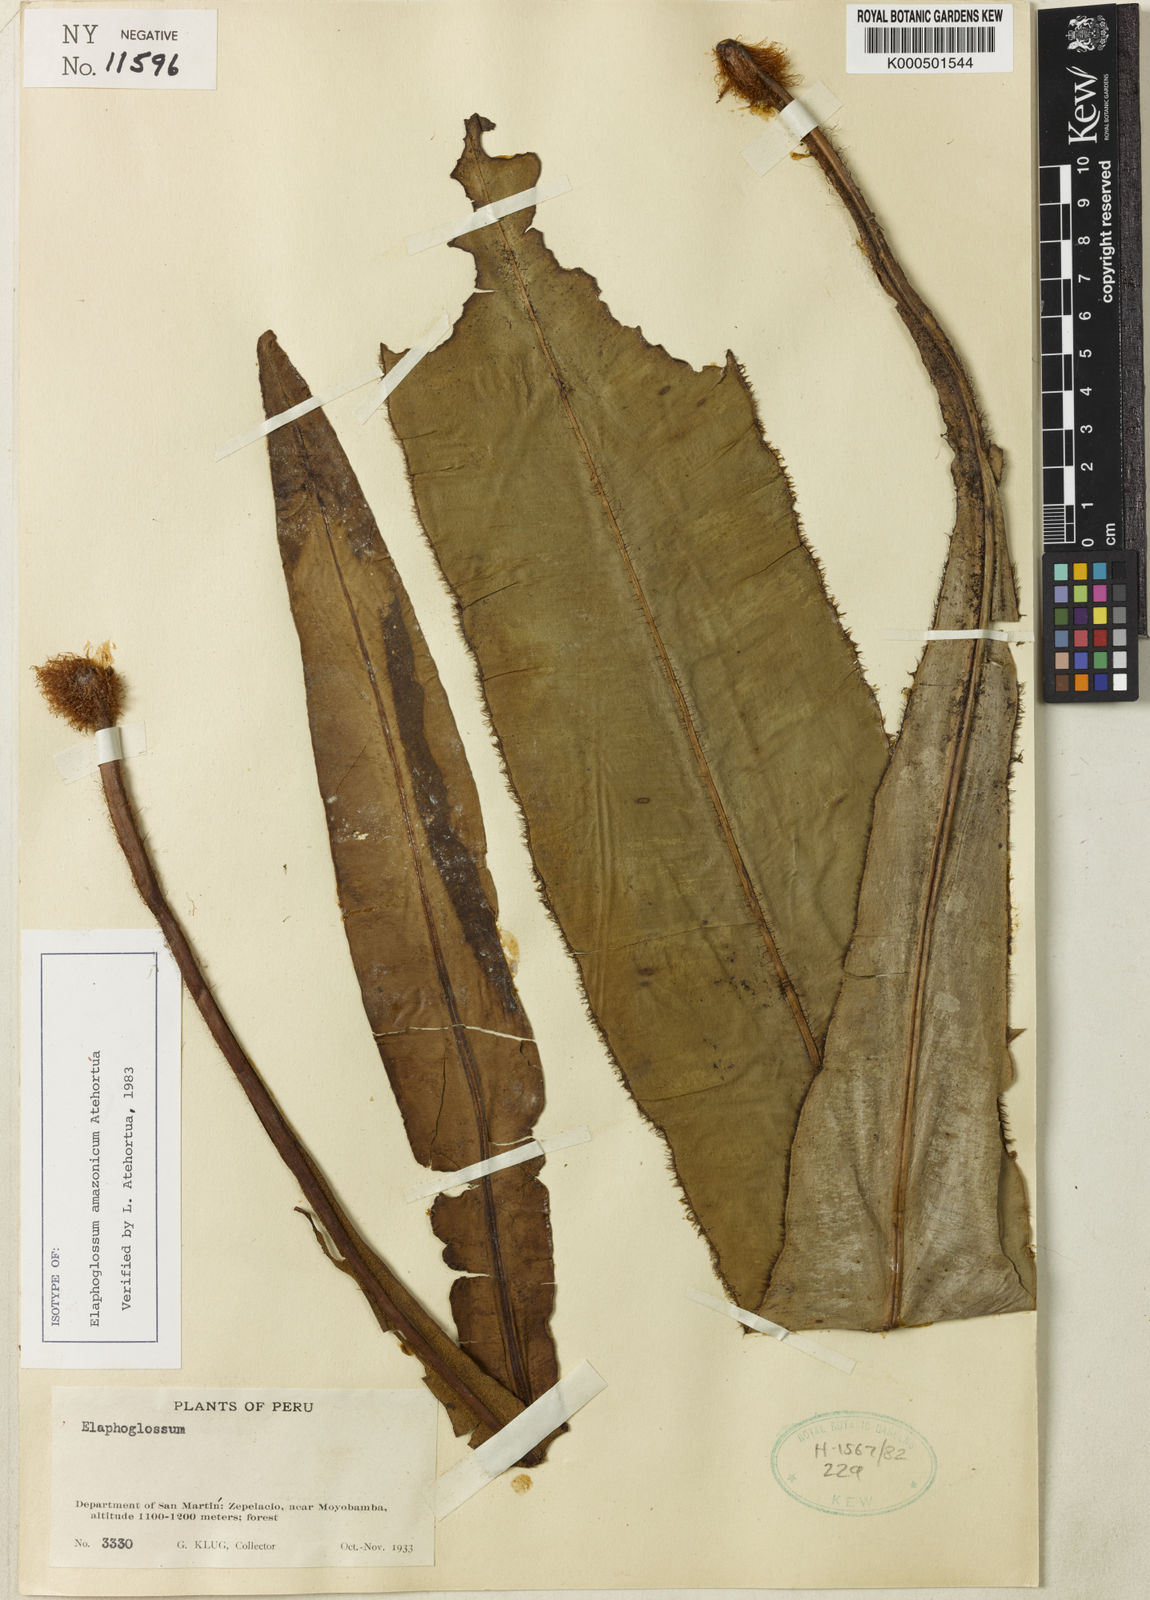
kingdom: Plantae
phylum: Tracheophyta
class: Polypodiopsida
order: Polypodiales
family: Dryopteridaceae
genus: Elaphoglossum
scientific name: Elaphoglossum
